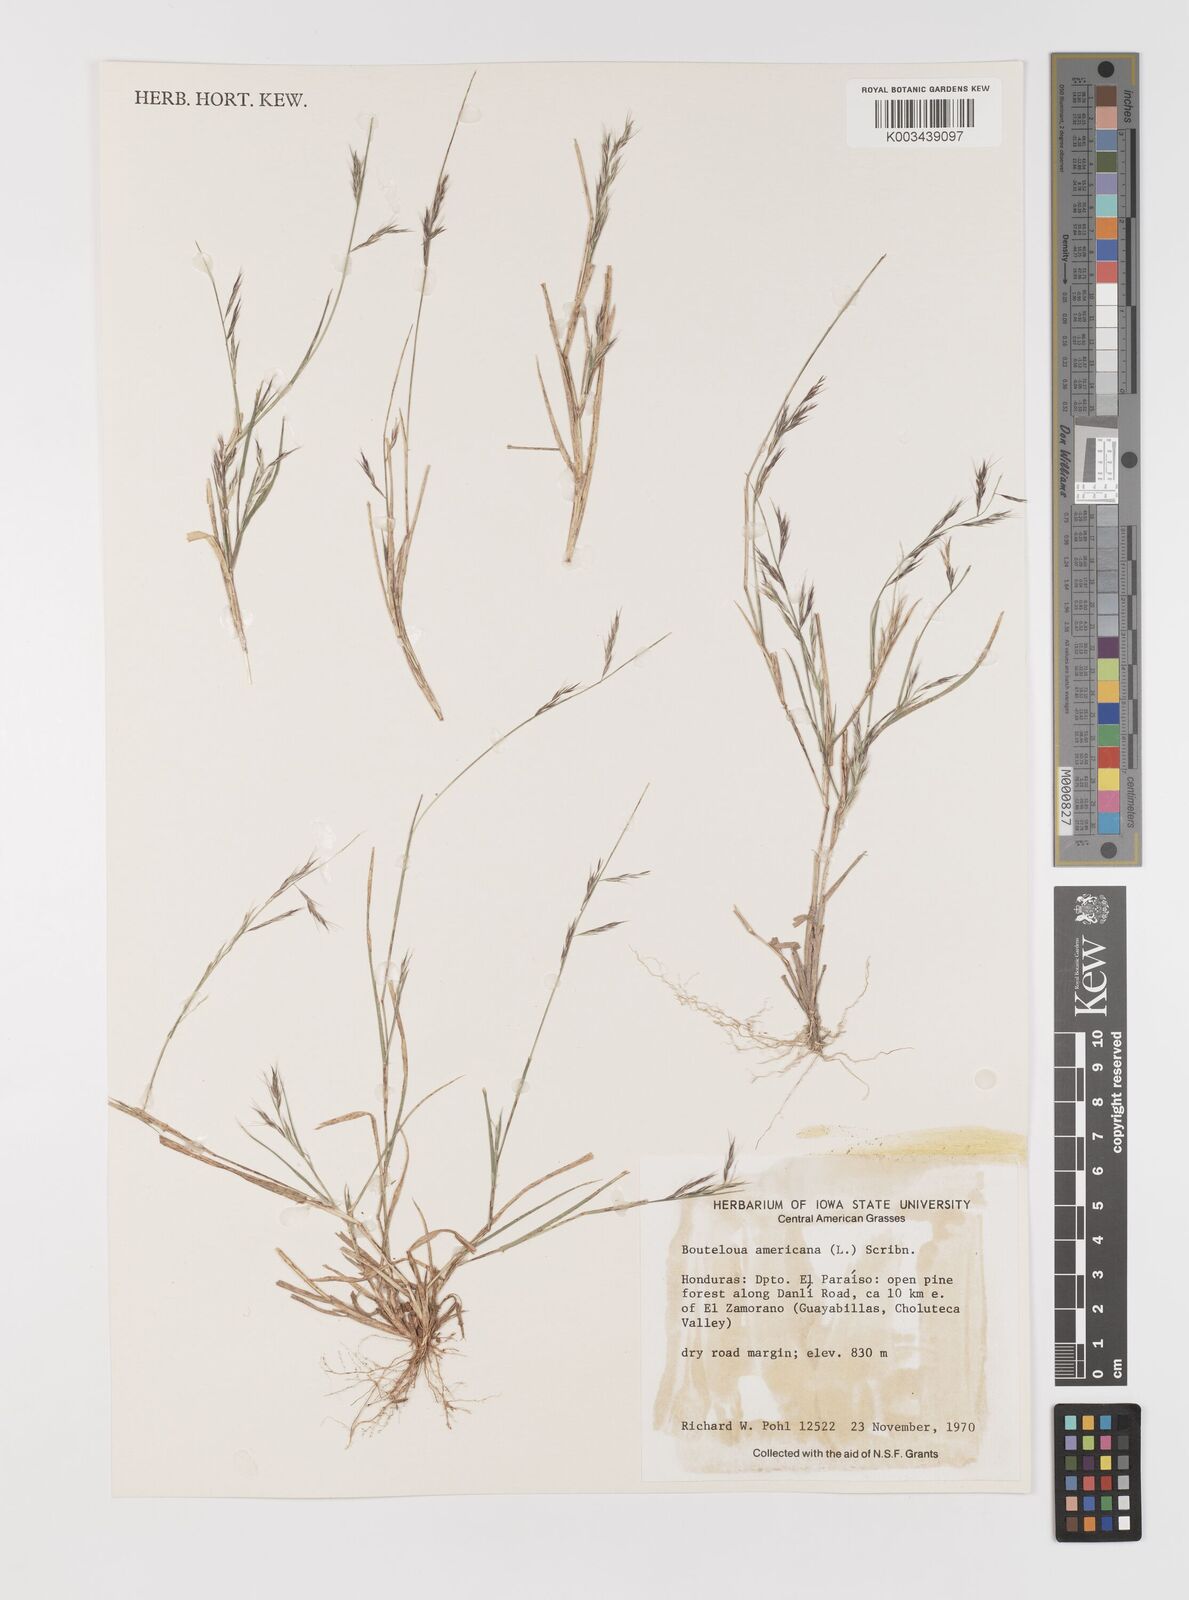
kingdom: Plantae
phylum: Tracheophyta
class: Liliopsida
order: Poales
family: Poaceae
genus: Bouteloua
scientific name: Bouteloua americana
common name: Mule grass
